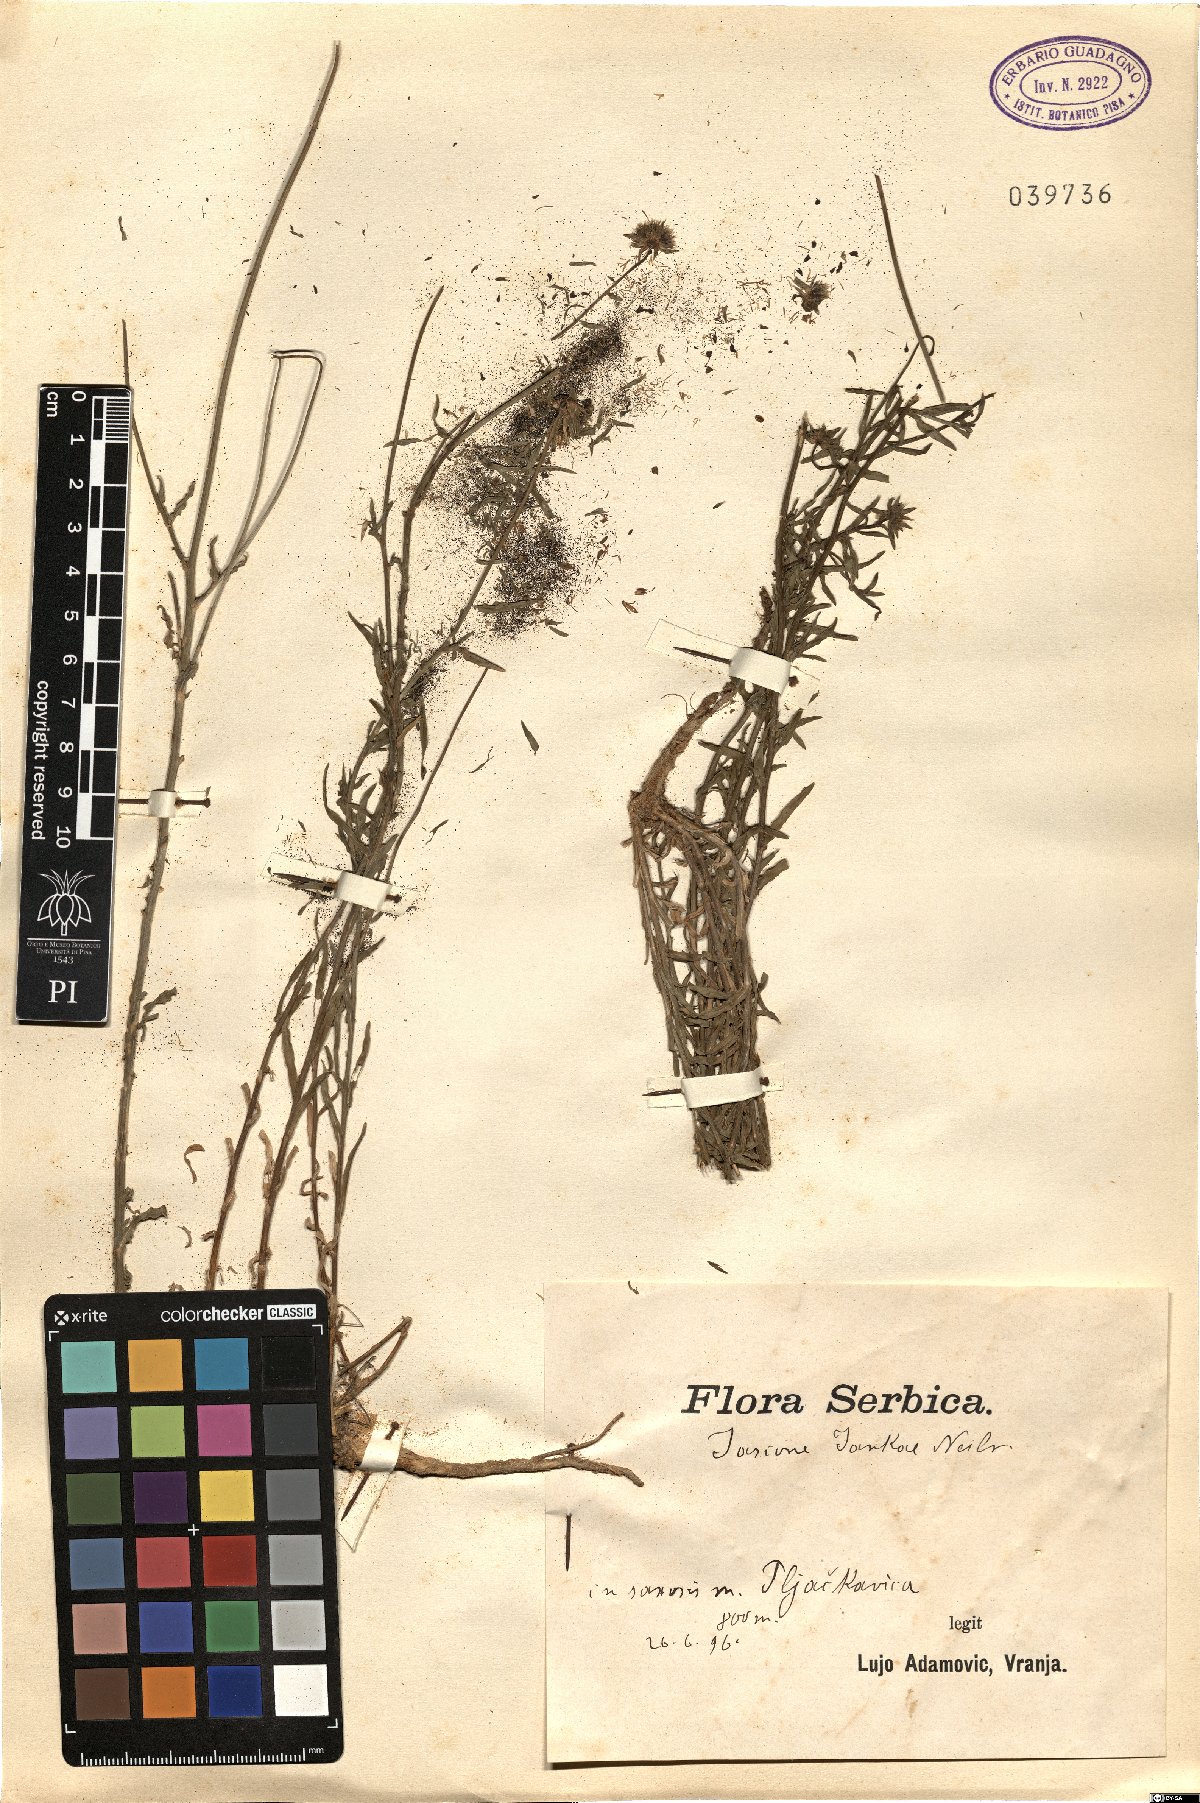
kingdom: Plantae
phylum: Tracheophyta
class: Magnoliopsida
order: Asterales
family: Campanulaceae
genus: Jasione
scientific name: Jasione heldreichii
